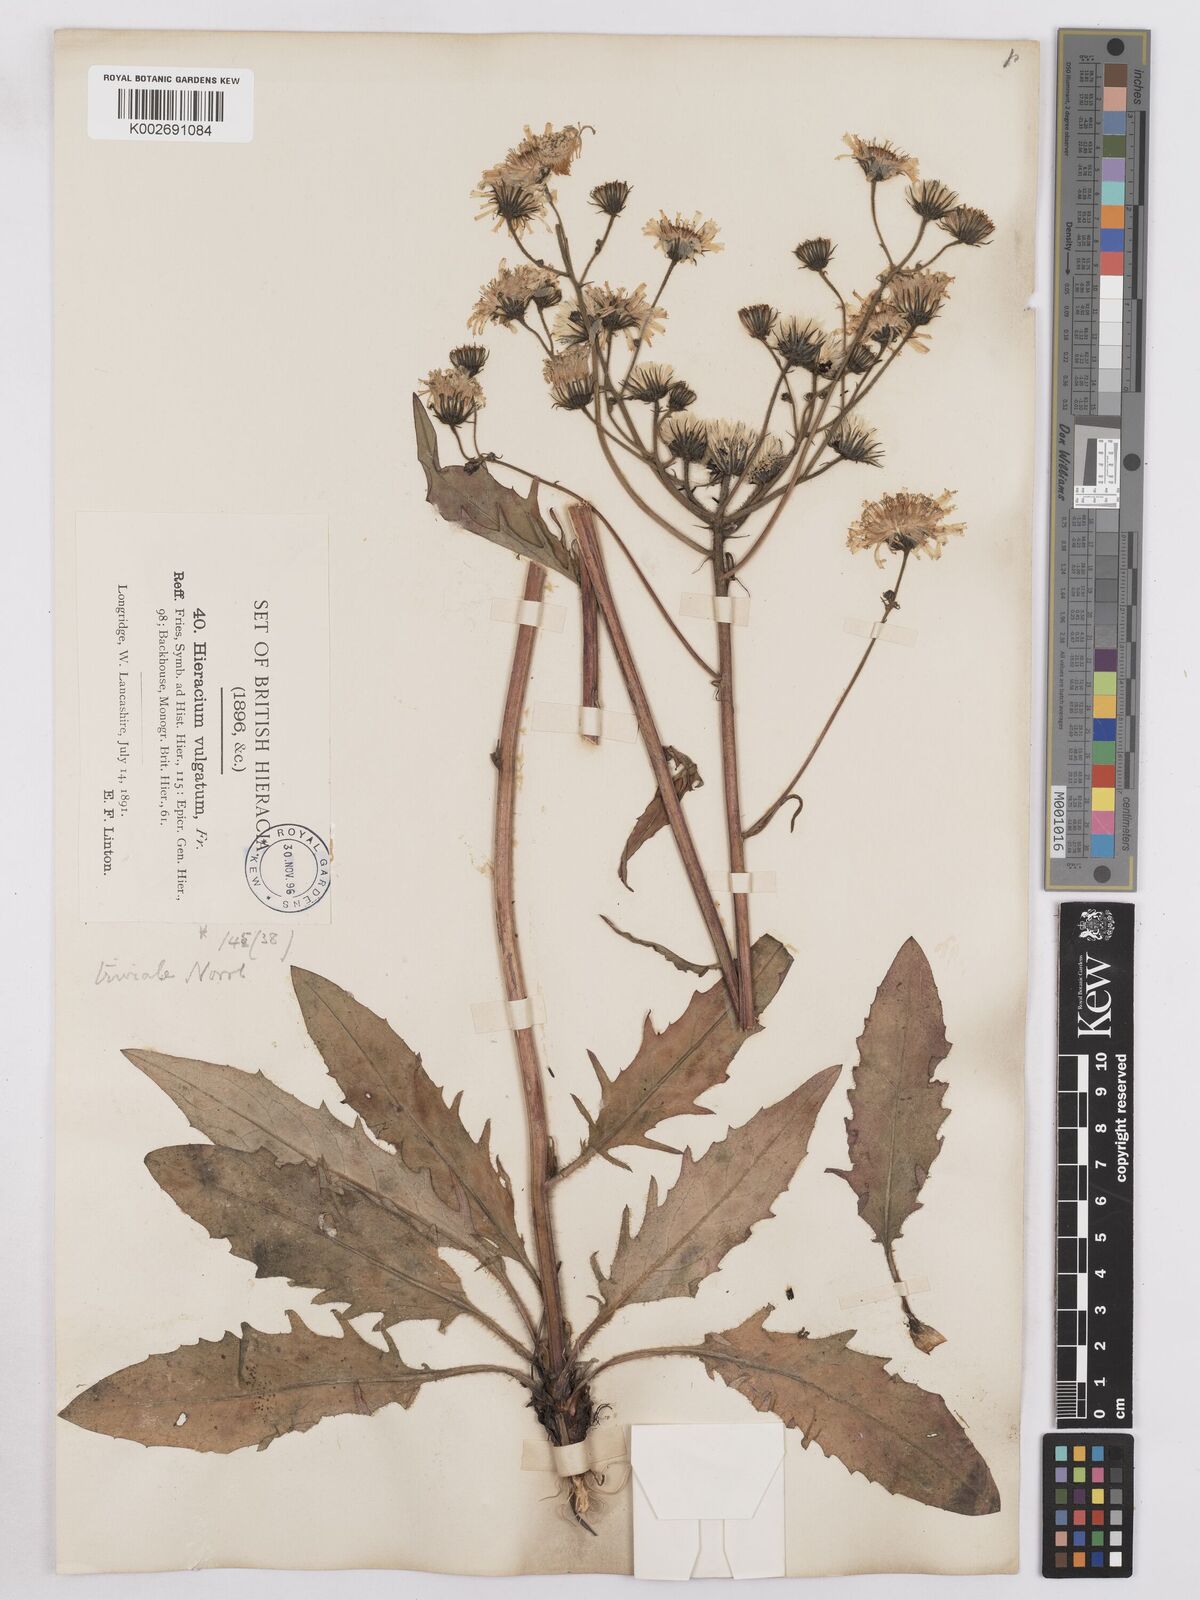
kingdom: Plantae
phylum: Tracheophyta
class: Magnoliopsida
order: Asterales
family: Asteraceae
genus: Hieracium
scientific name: Hieracium lachenalii
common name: Common hawkweed
